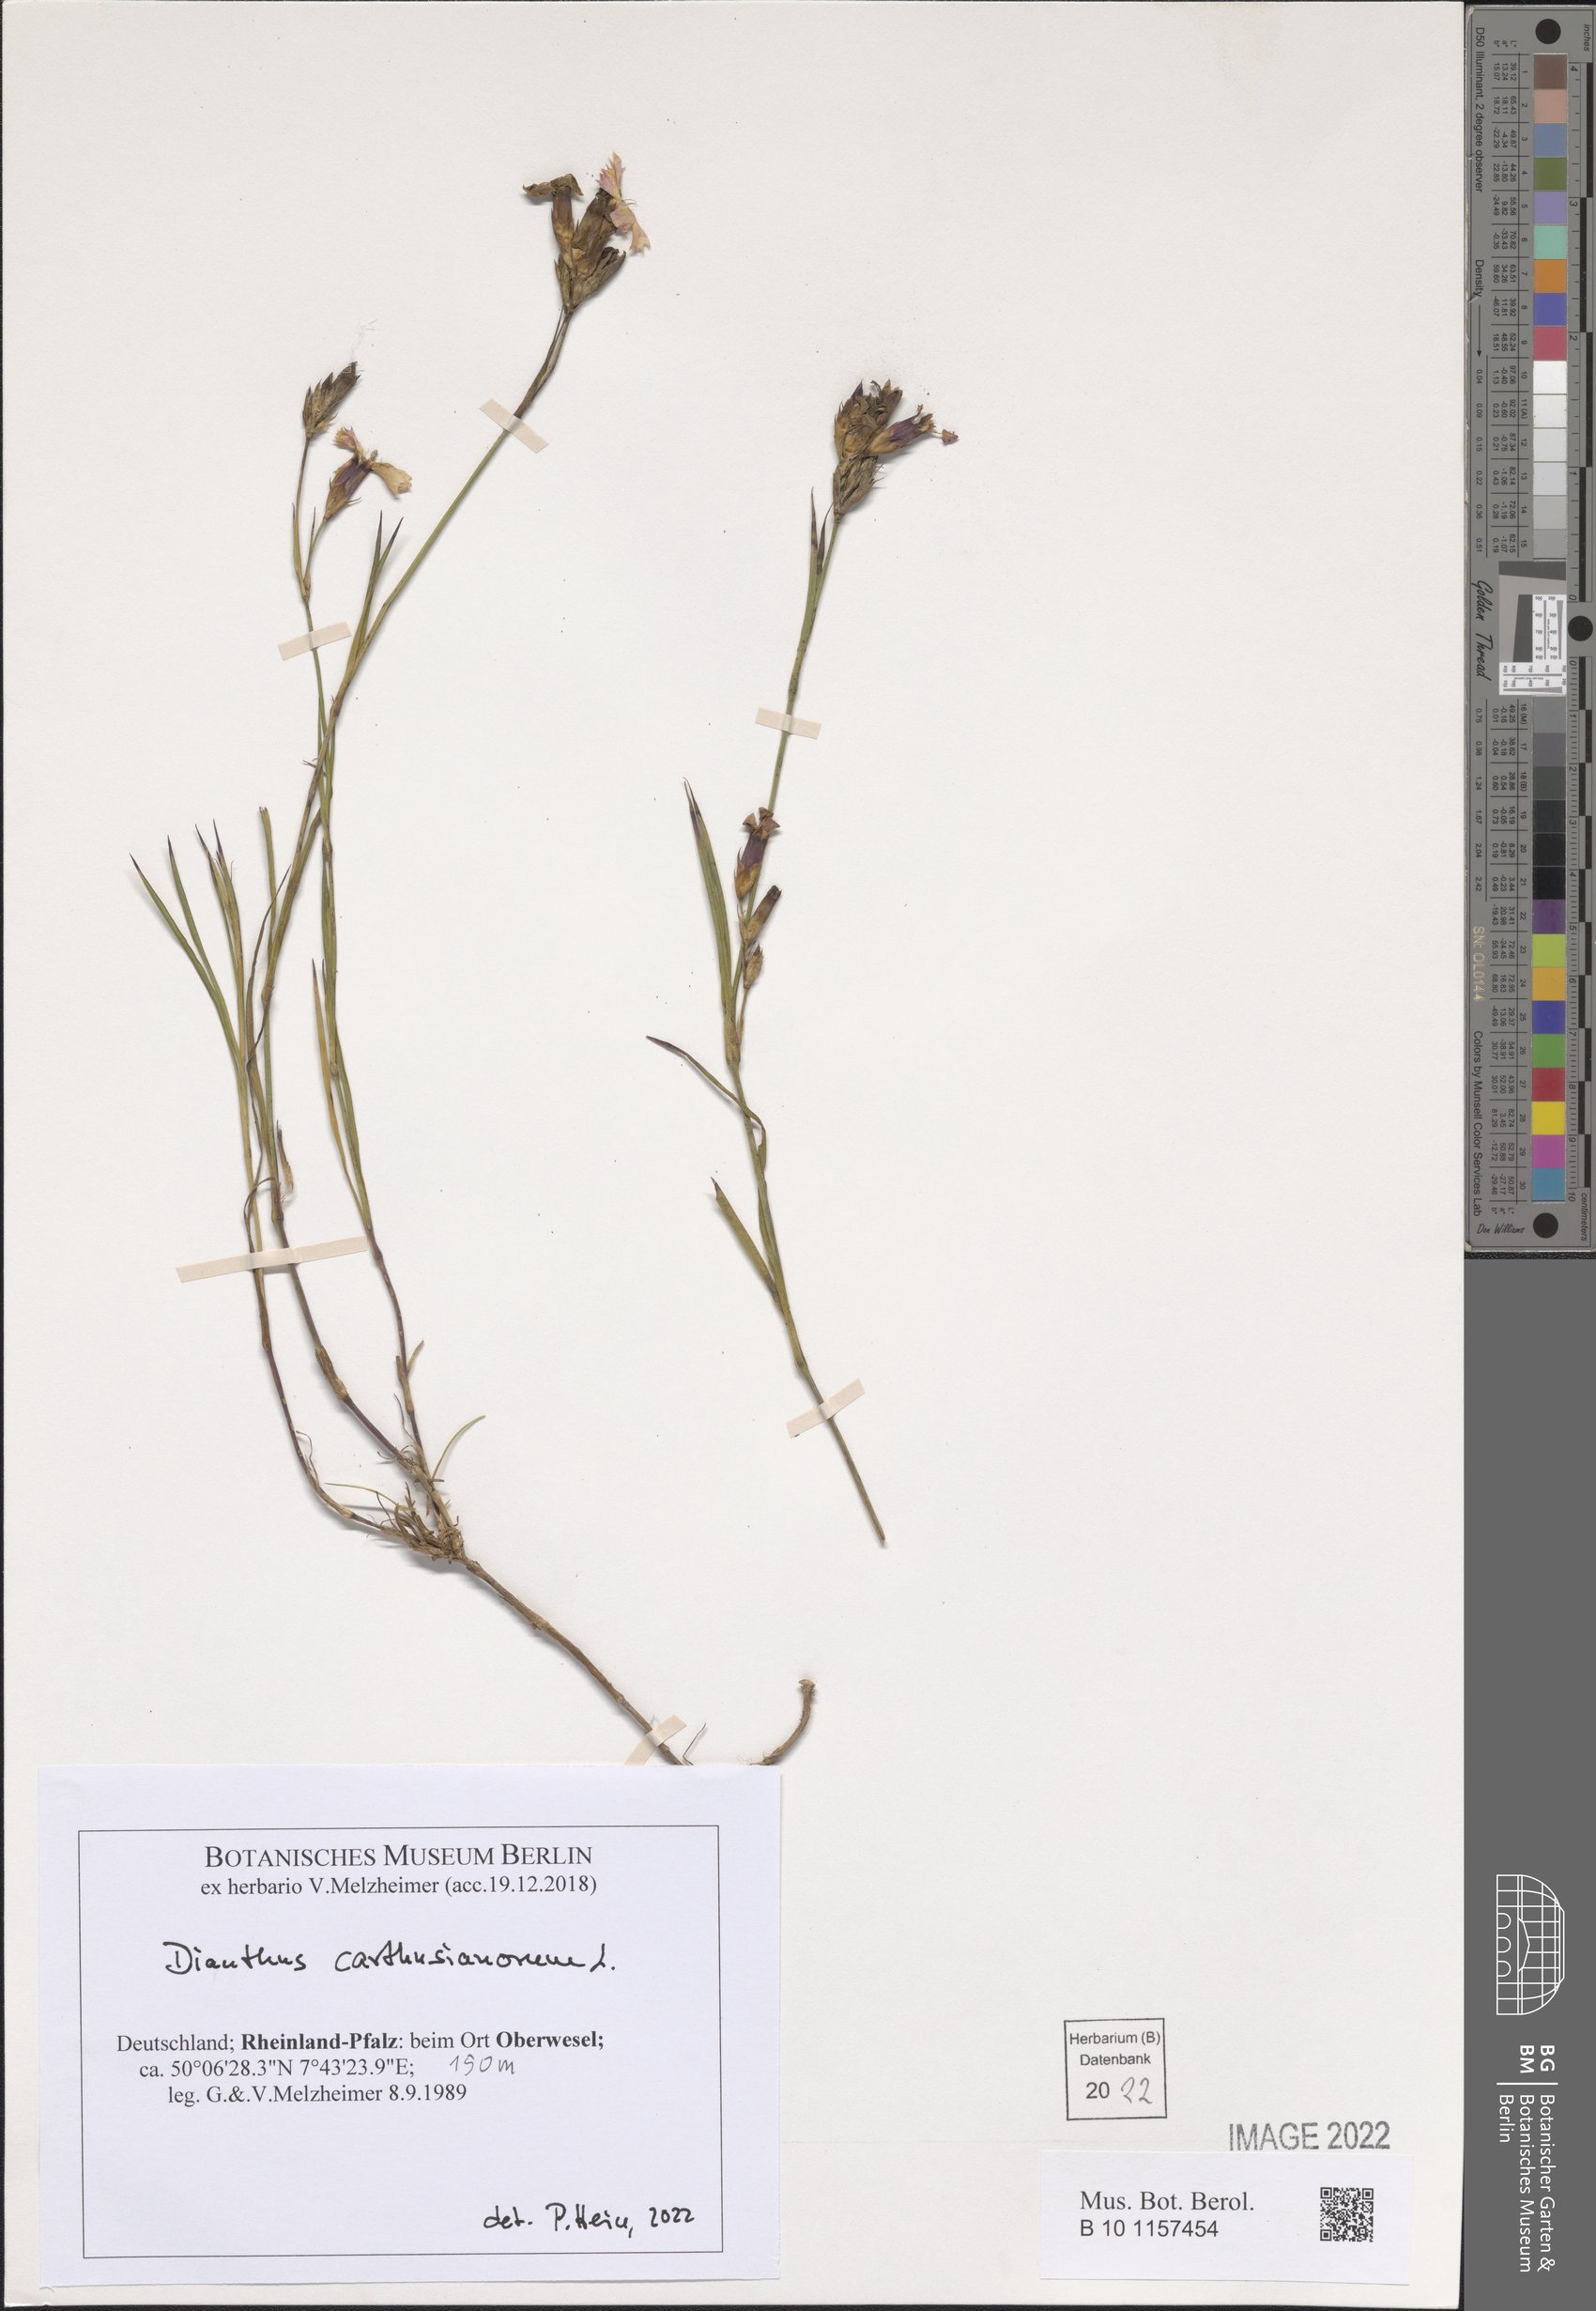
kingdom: Plantae
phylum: Tracheophyta
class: Magnoliopsida
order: Caryophyllales
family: Caryophyllaceae
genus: Dianthus
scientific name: Dianthus carthusianorum
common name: Carthusian pink
